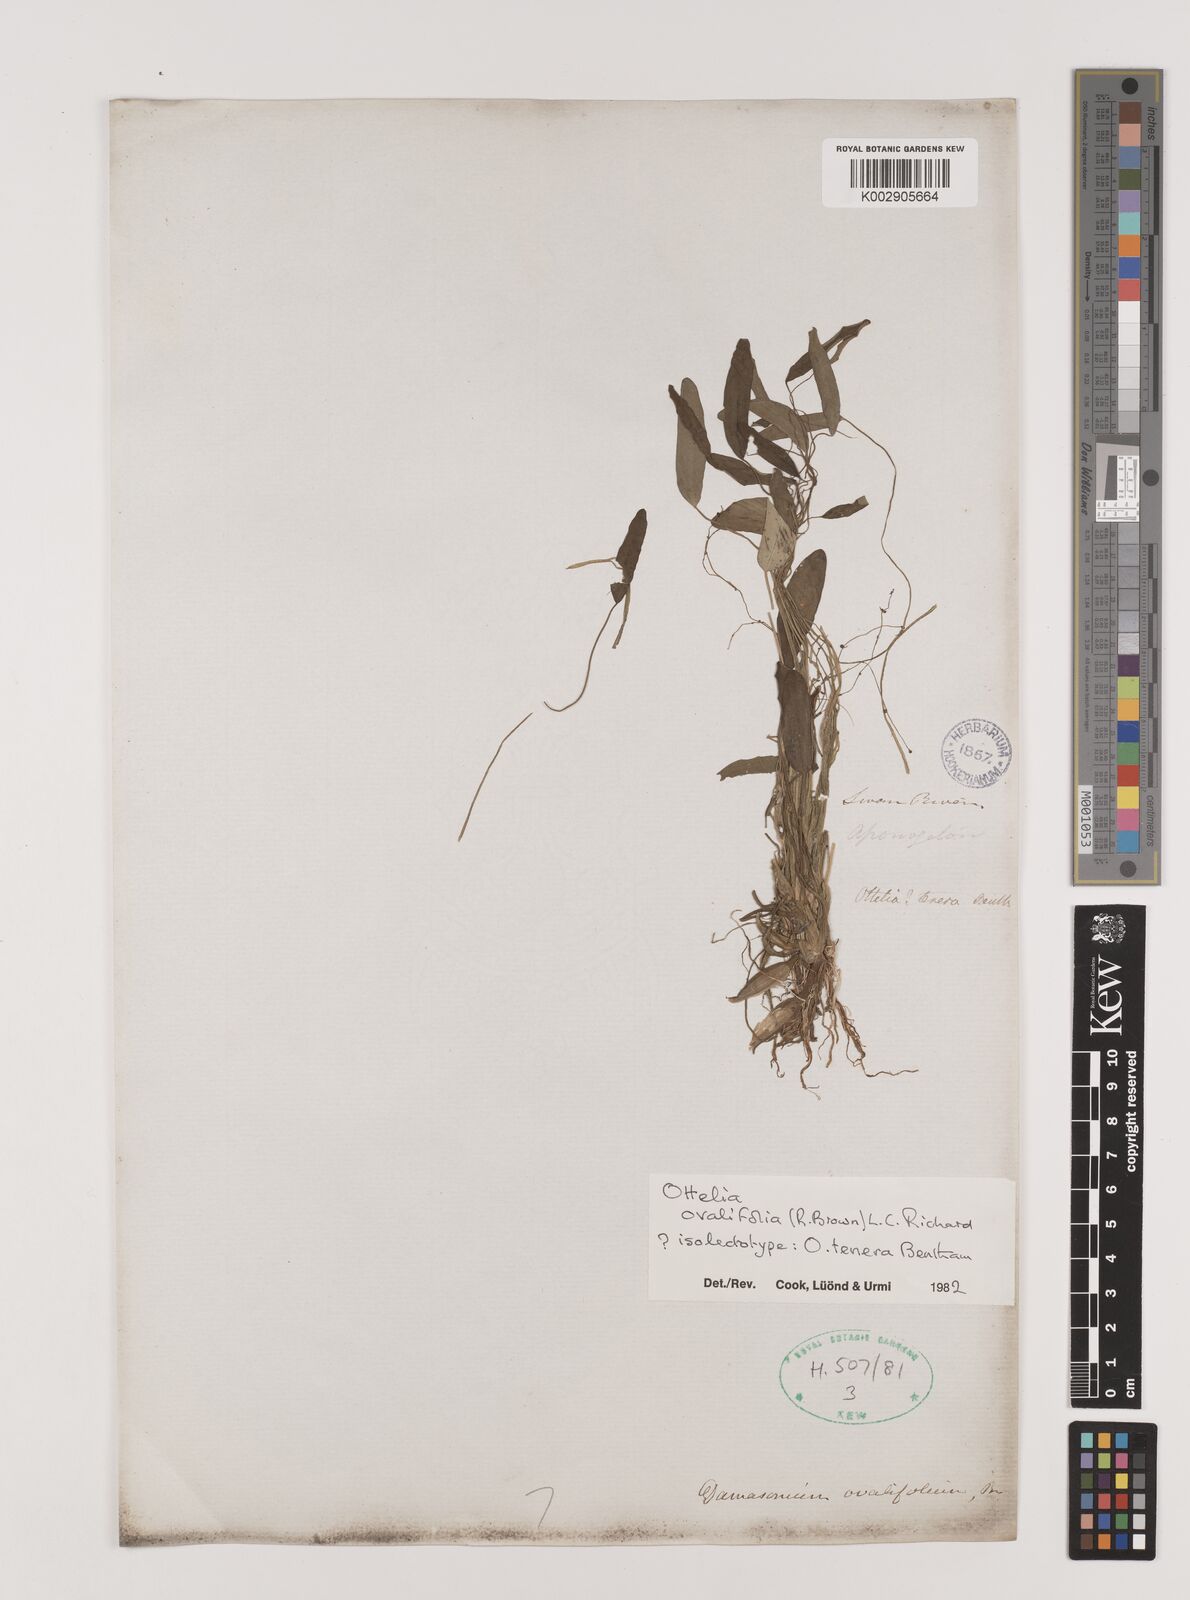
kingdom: Plantae
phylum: Tracheophyta
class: Liliopsida
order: Alismatales
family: Hydrocharitaceae
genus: Ottelia
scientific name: Ottelia ovalifolia
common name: Swamp-lily
